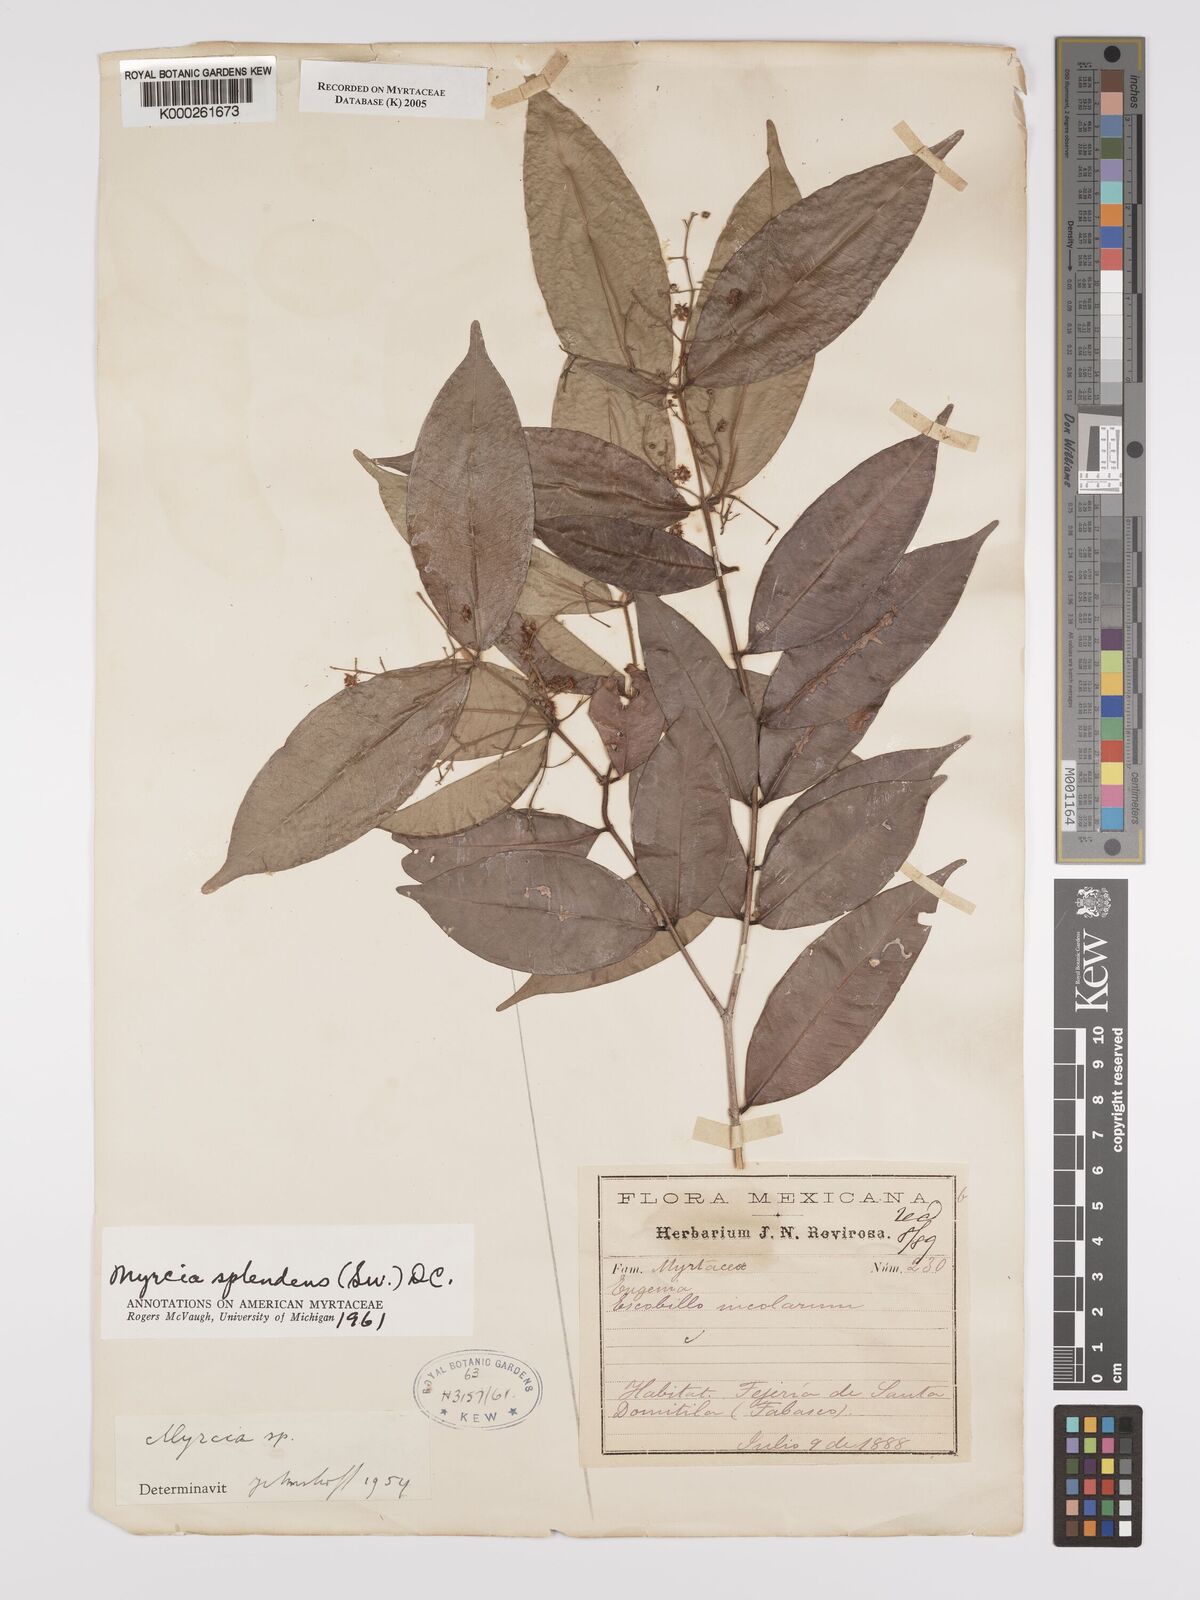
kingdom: Plantae
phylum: Tracheophyta
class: Magnoliopsida
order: Myrtales
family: Myrtaceae
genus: Myrcia
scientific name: Myrcia splendens
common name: Surinam cherry
